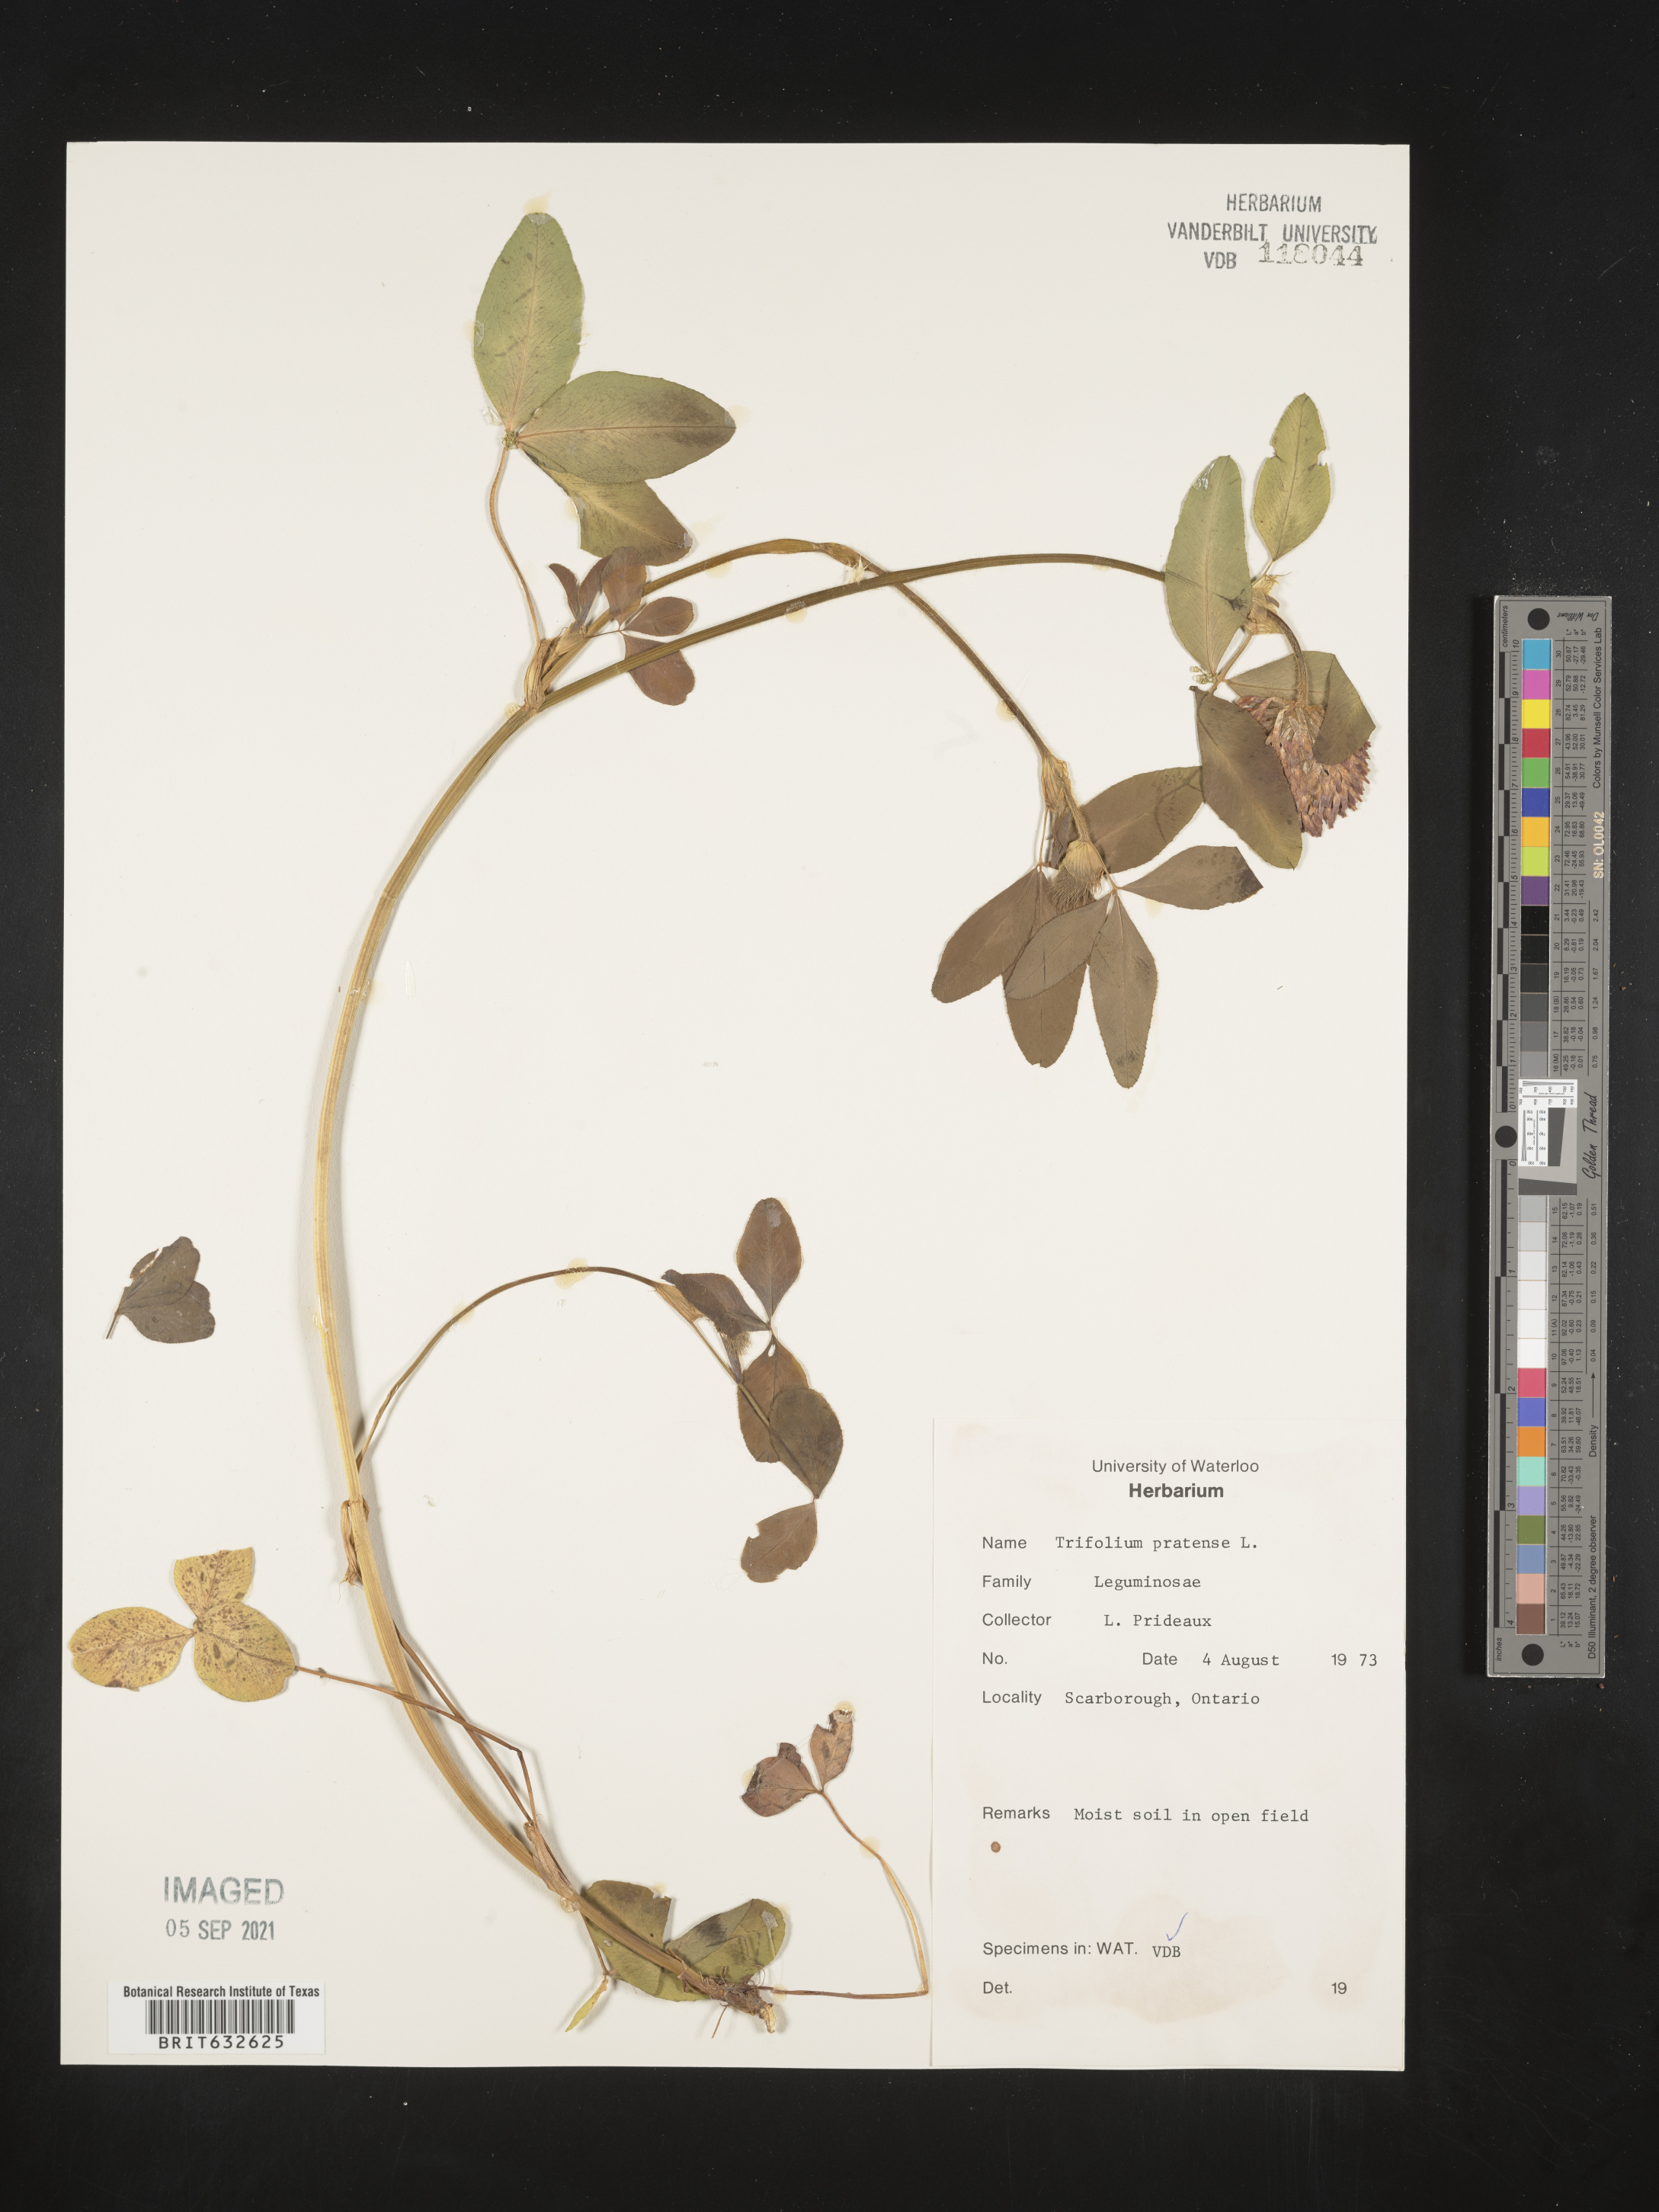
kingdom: Plantae
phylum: Tracheophyta
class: Magnoliopsida
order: Fabales
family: Fabaceae
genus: Trifolium
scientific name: Trifolium
